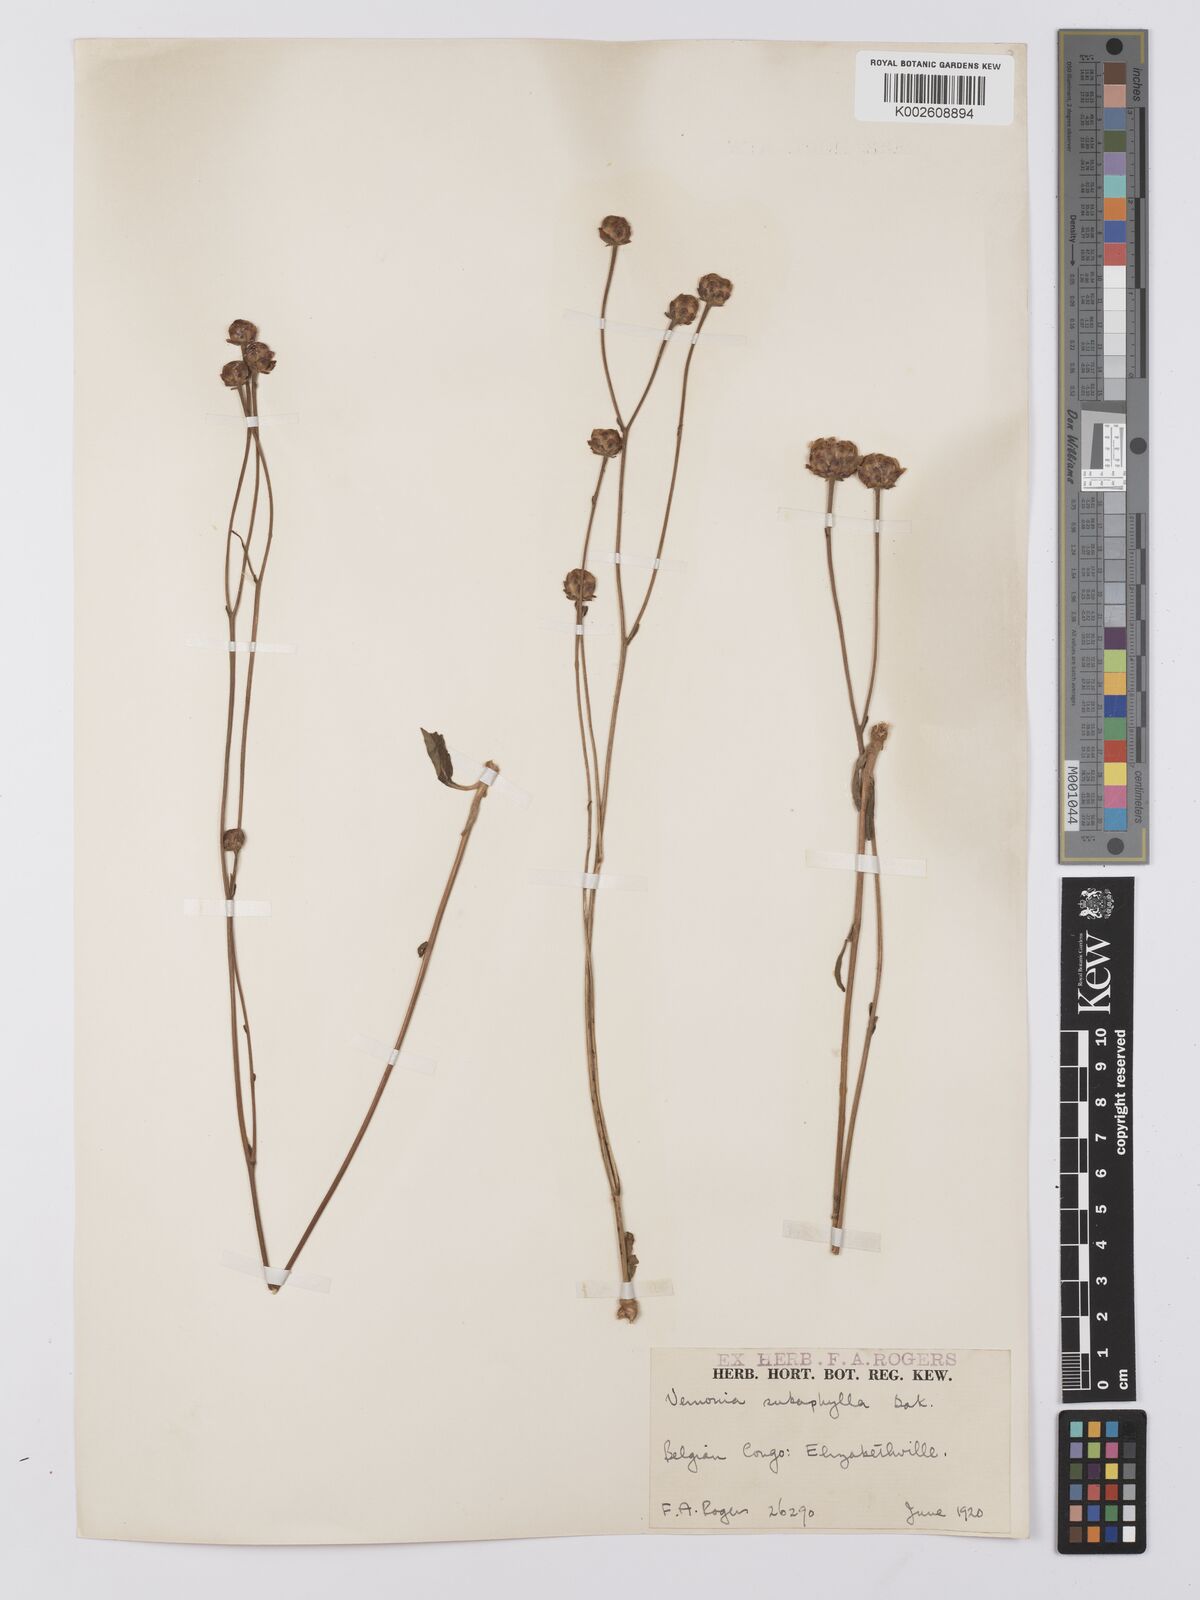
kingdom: Plantae
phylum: Tracheophyta
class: Magnoliopsida
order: Asterales
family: Asteraceae
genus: Vernonella
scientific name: Vernonella subaphylla
